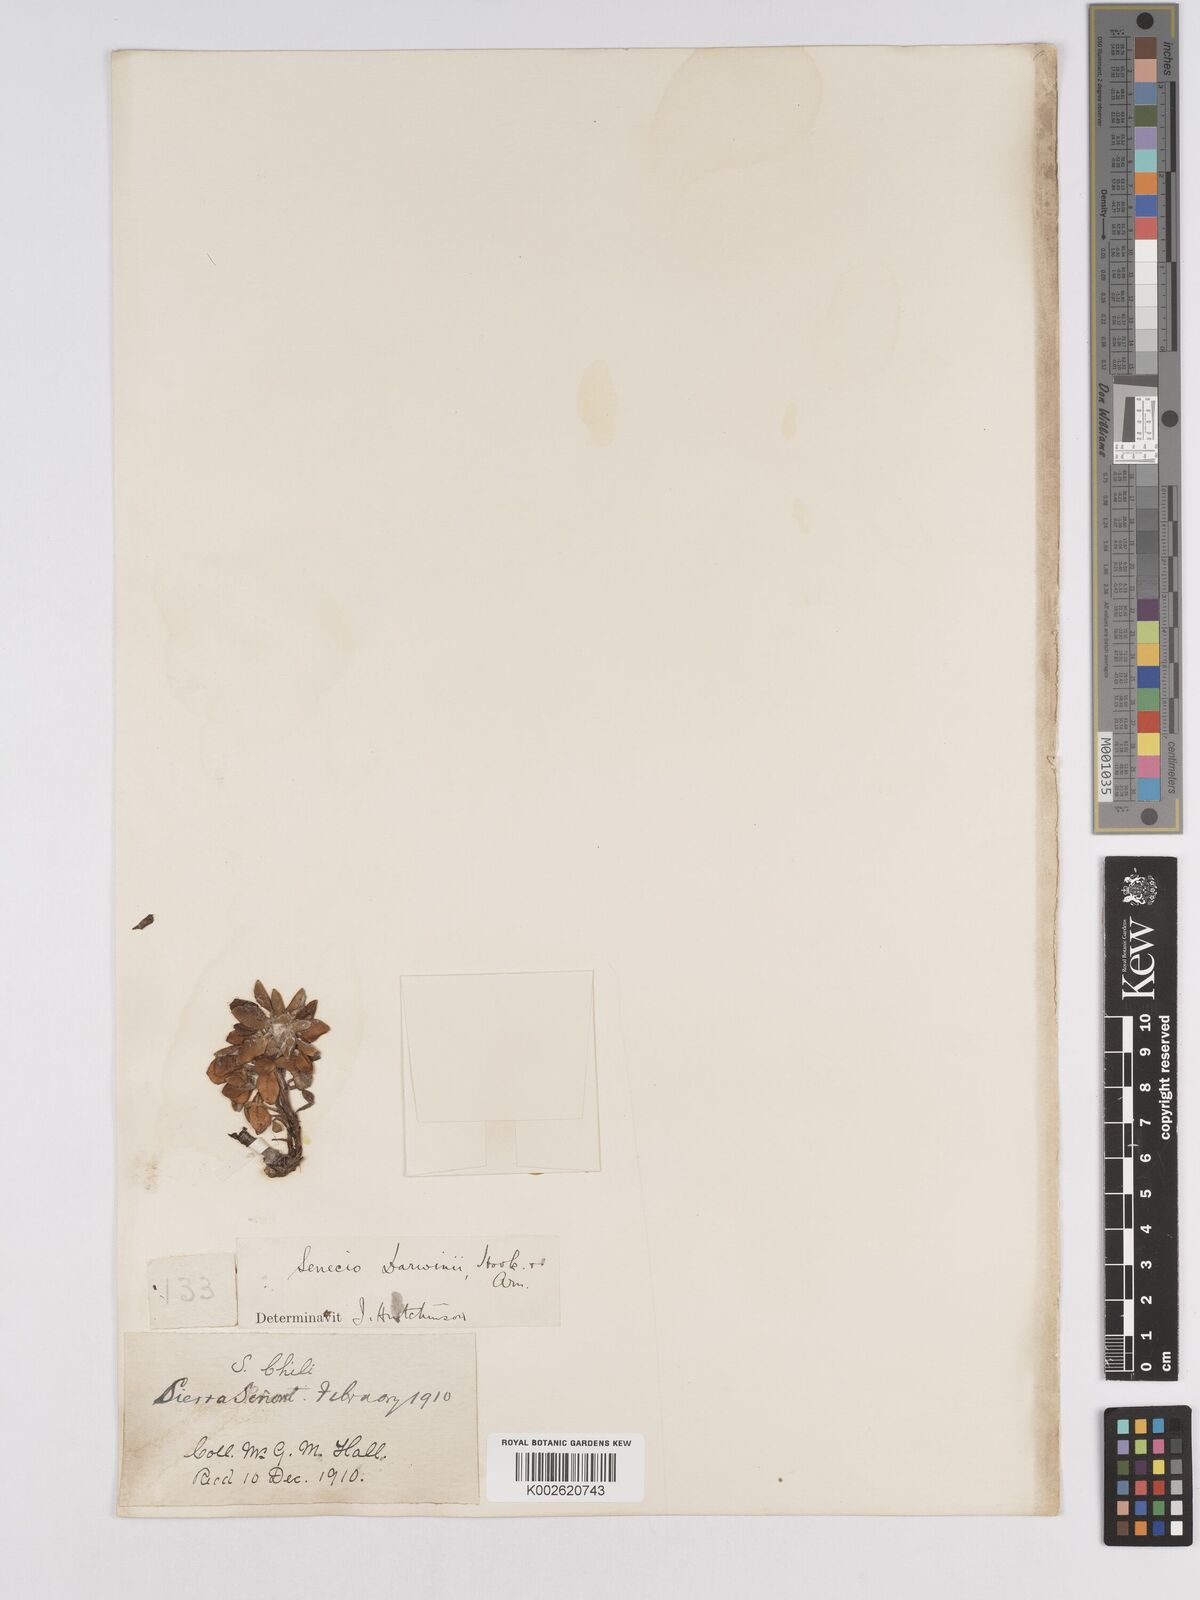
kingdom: Plantae
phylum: Tracheophyta
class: Magnoliopsida
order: Asterales
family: Asteraceae
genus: Senecio
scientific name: Senecio darwinii
